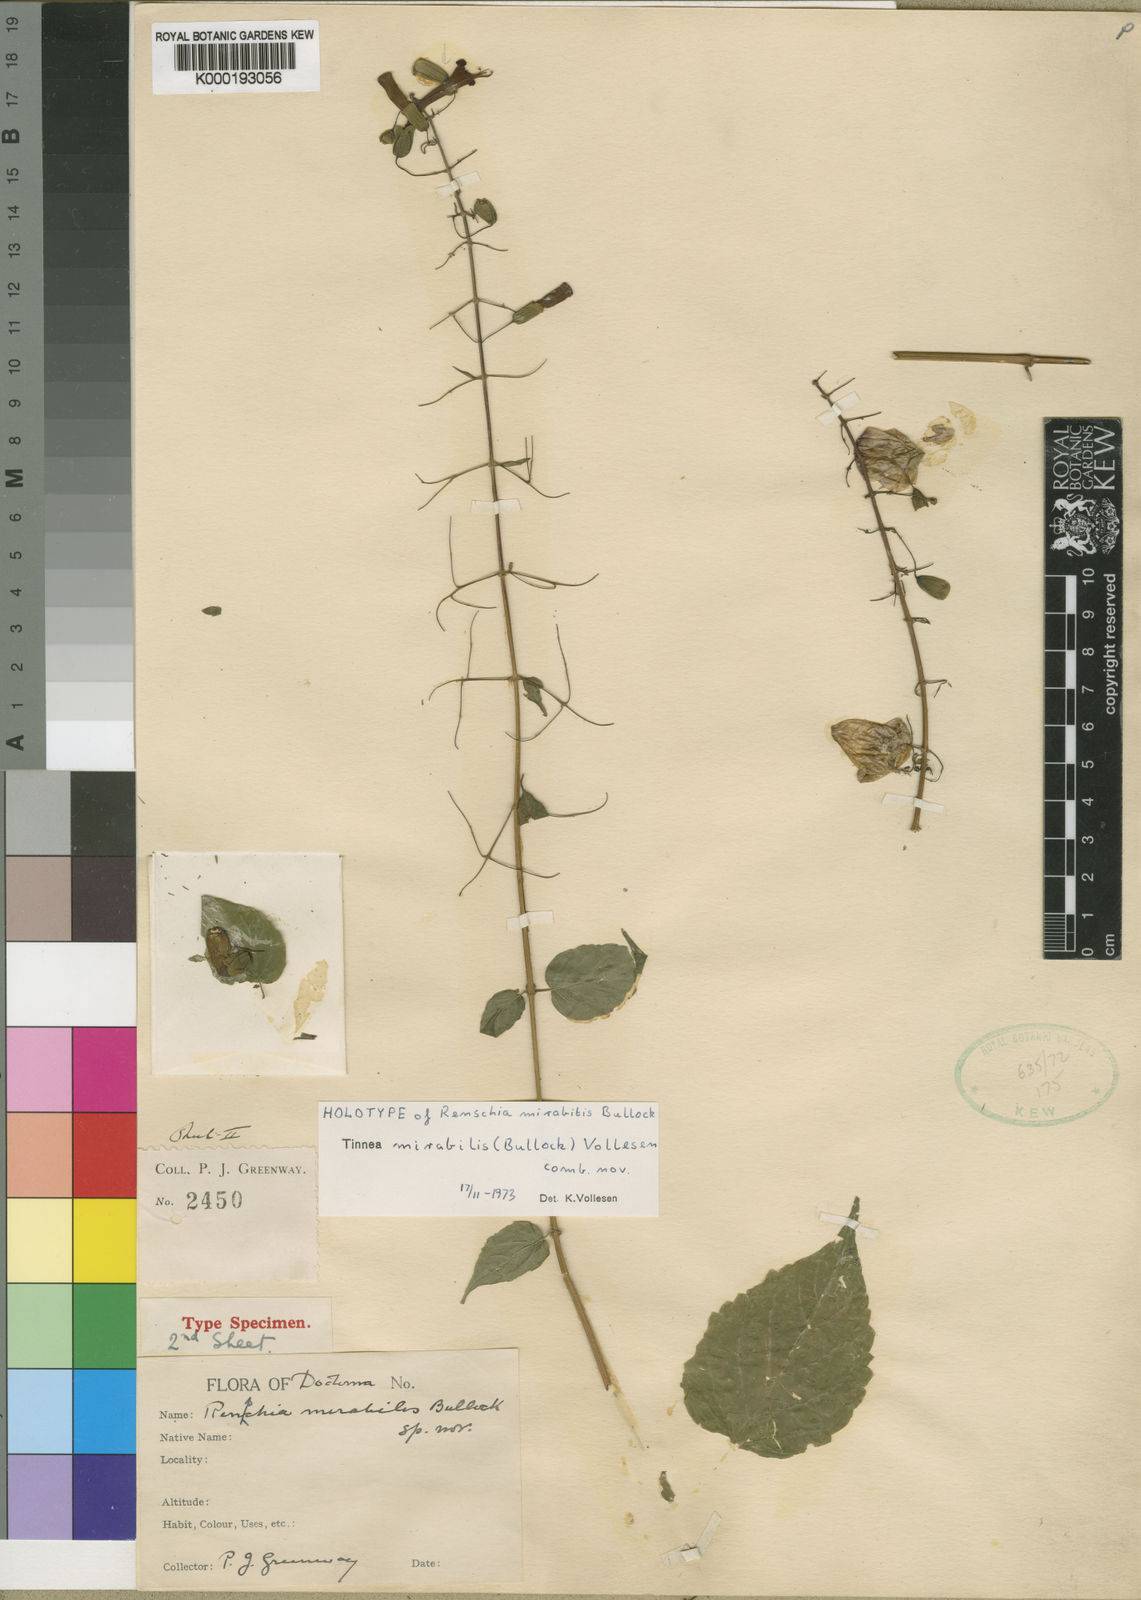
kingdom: Plantae
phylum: Tracheophyta
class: Magnoliopsida
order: Lamiales
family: Lamiaceae
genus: Tinnea
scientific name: Tinnea mirabilis
